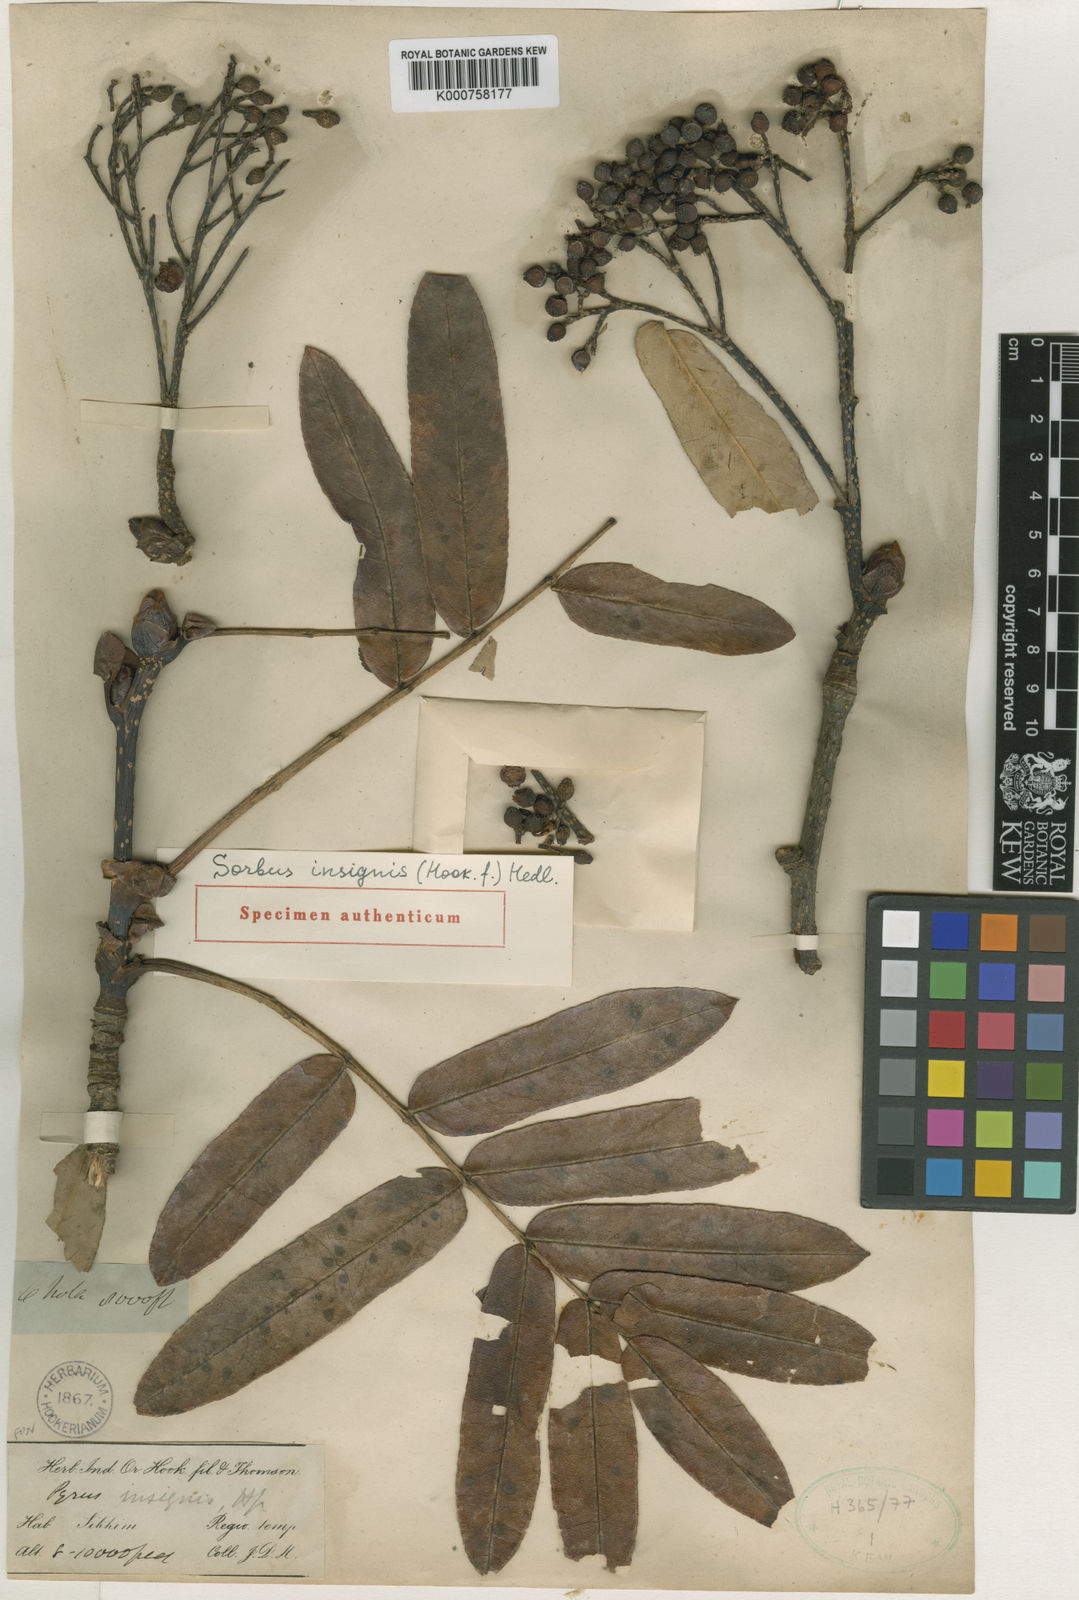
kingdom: Plantae
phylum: Tracheophyta
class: Magnoliopsida
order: Rosales
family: Rosaceae
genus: Sorbus
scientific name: Sorbus insignis
